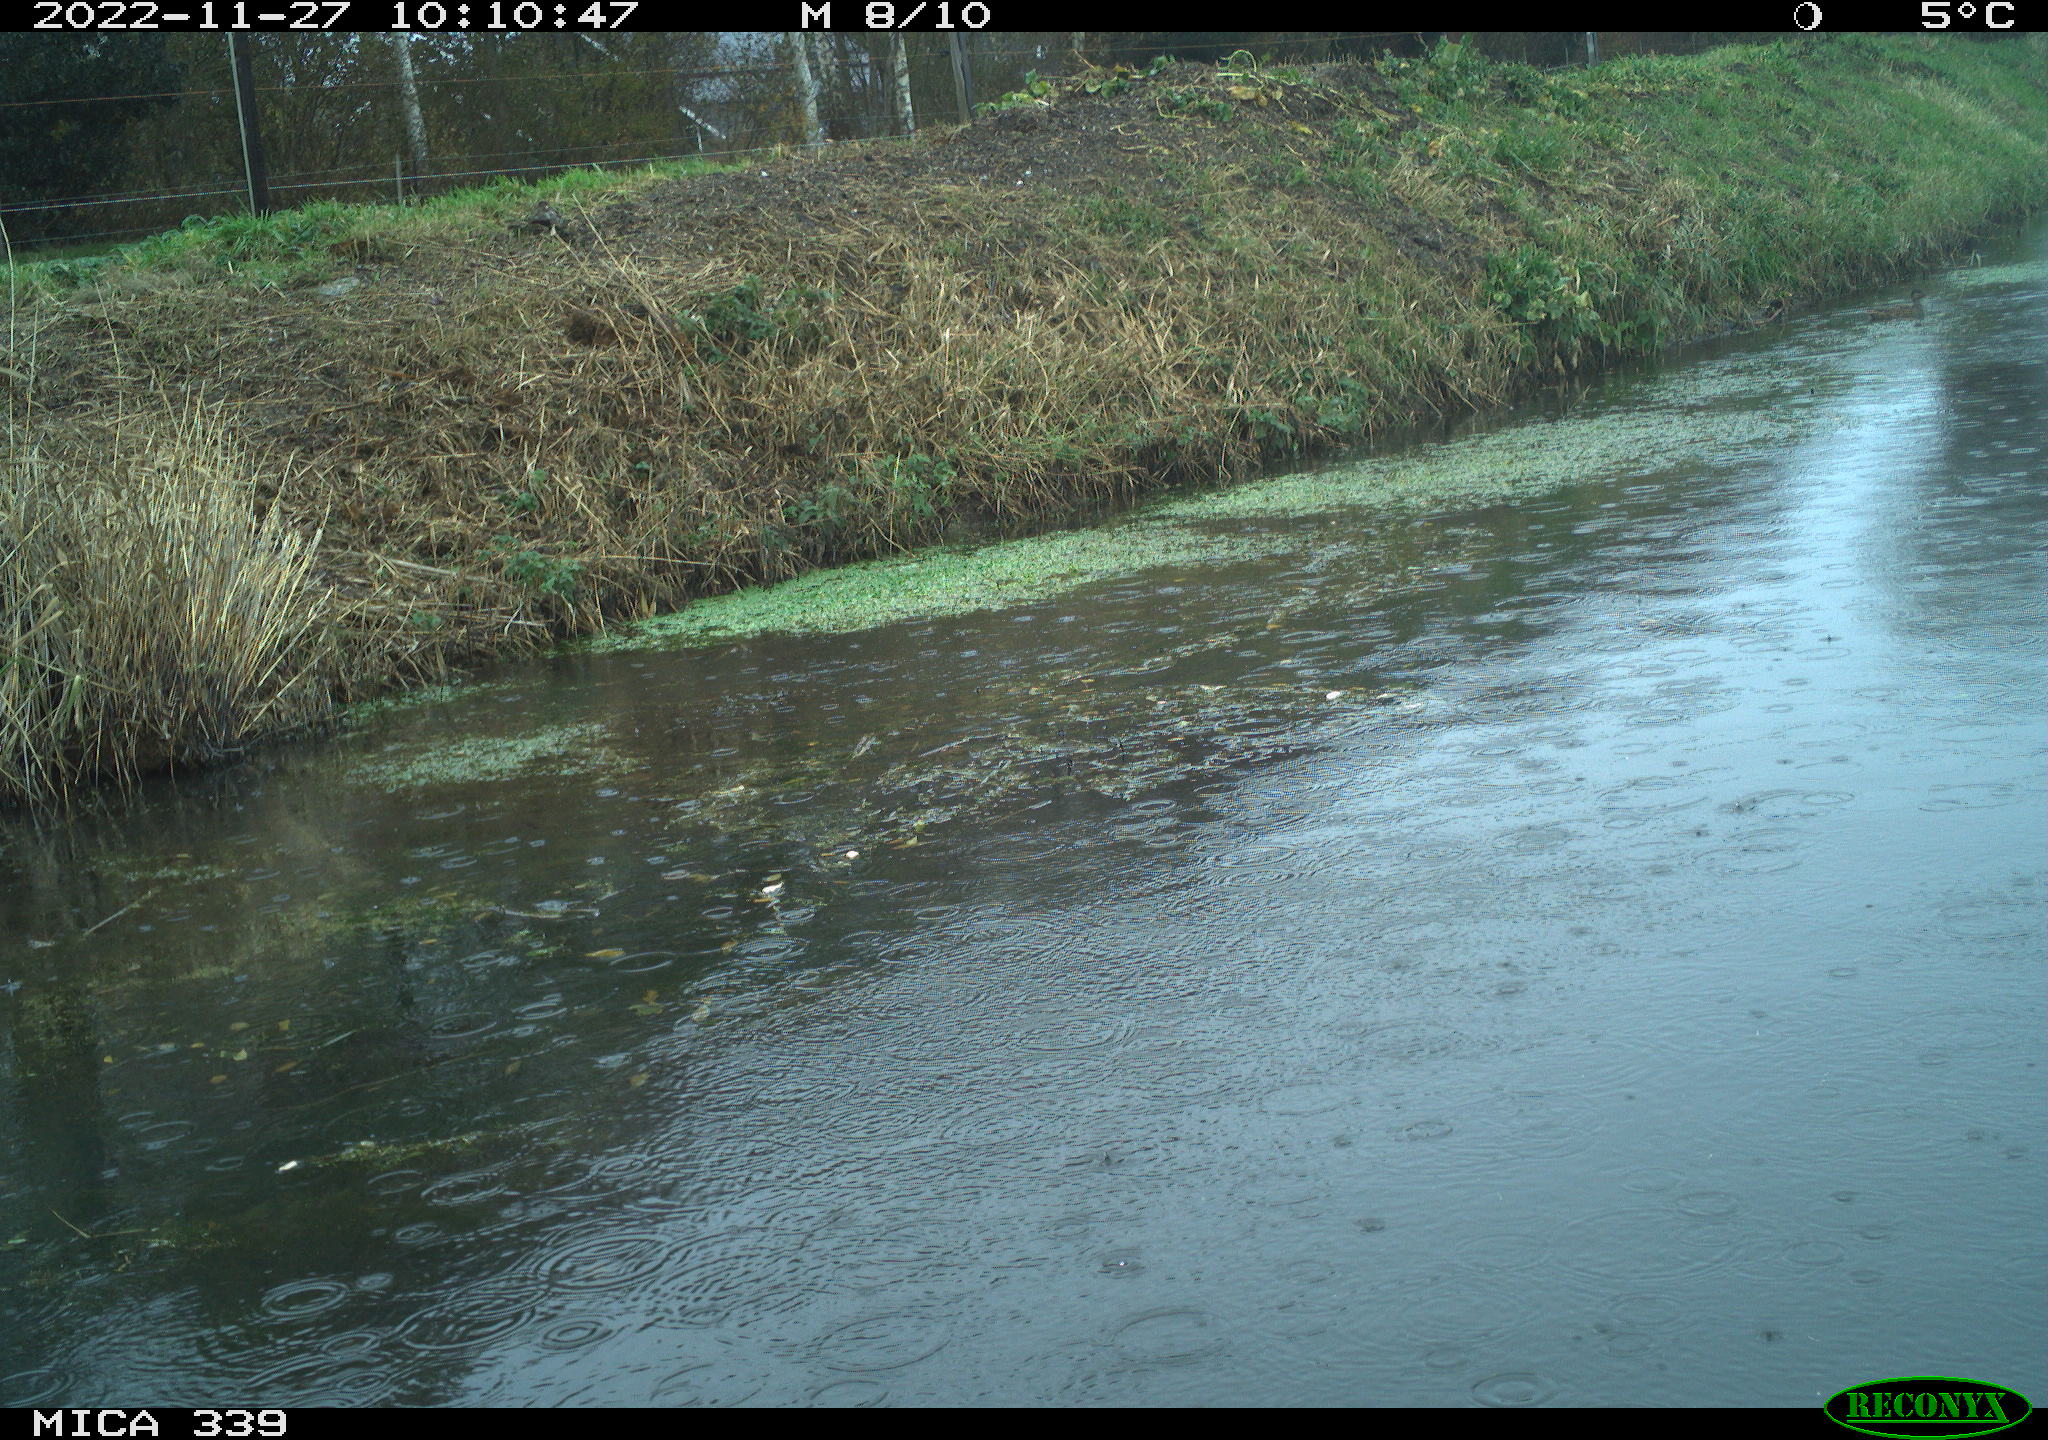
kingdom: Animalia
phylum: Chordata
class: Aves
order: Pelecaniformes
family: Ardeidae
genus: Ardea
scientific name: Ardea alba
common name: Great egret
